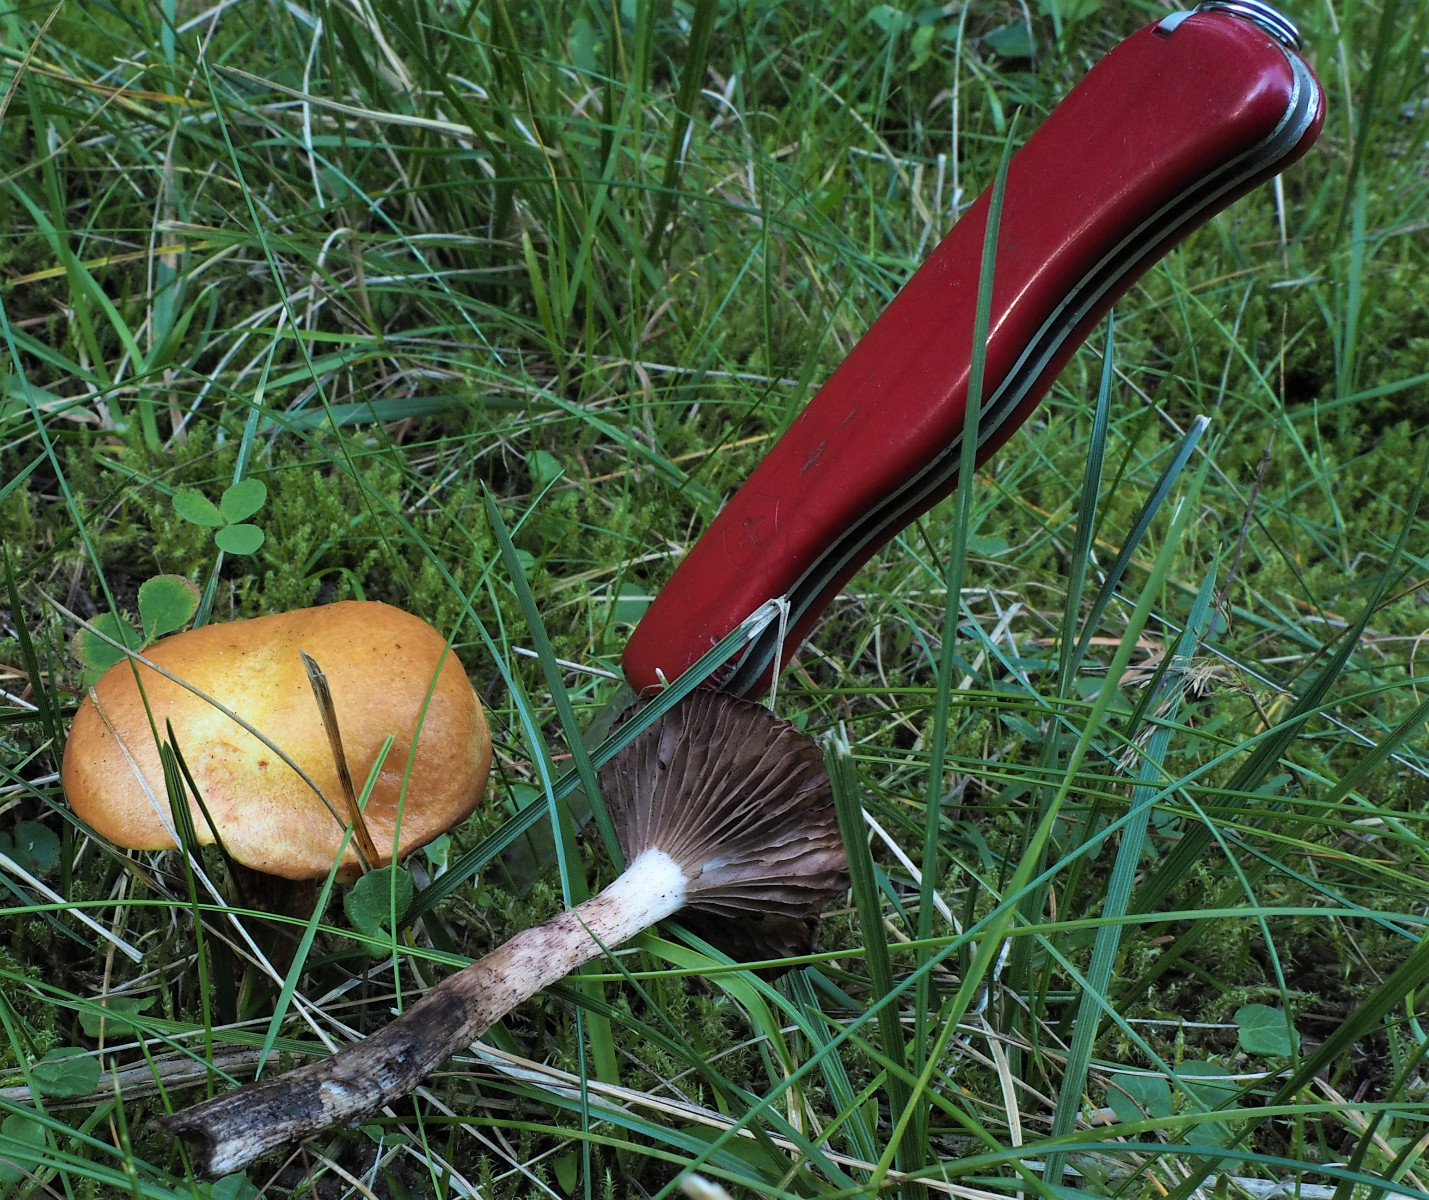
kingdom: Fungi
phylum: Basidiomycota
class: Agaricomycetes
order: Boletales
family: Gomphidiaceae
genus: Gomphidius
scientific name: Gomphidius maculatus
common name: rødmende slimslør
